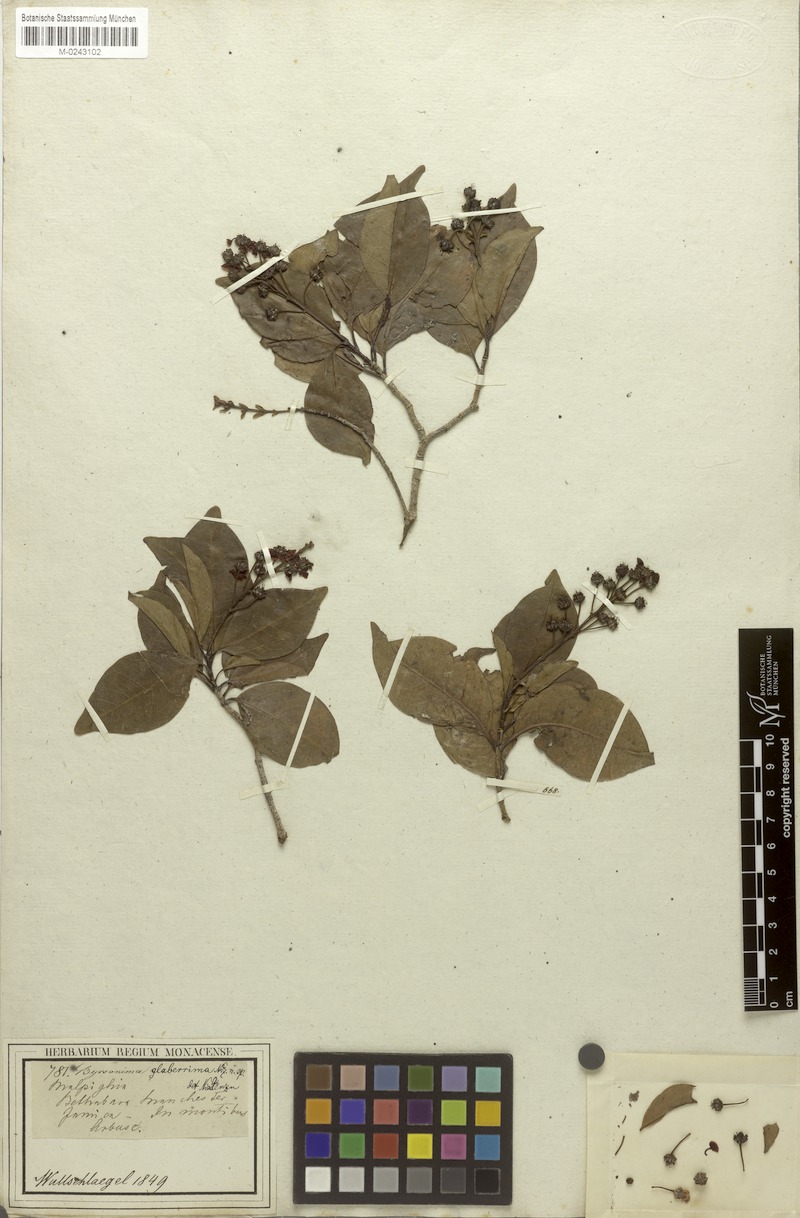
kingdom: Plantae
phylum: Tracheophyta
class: Magnoliopsida
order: Malpighiales
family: Malpighiaceae
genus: Byrsonima
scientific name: Byrsonima glaberrima
